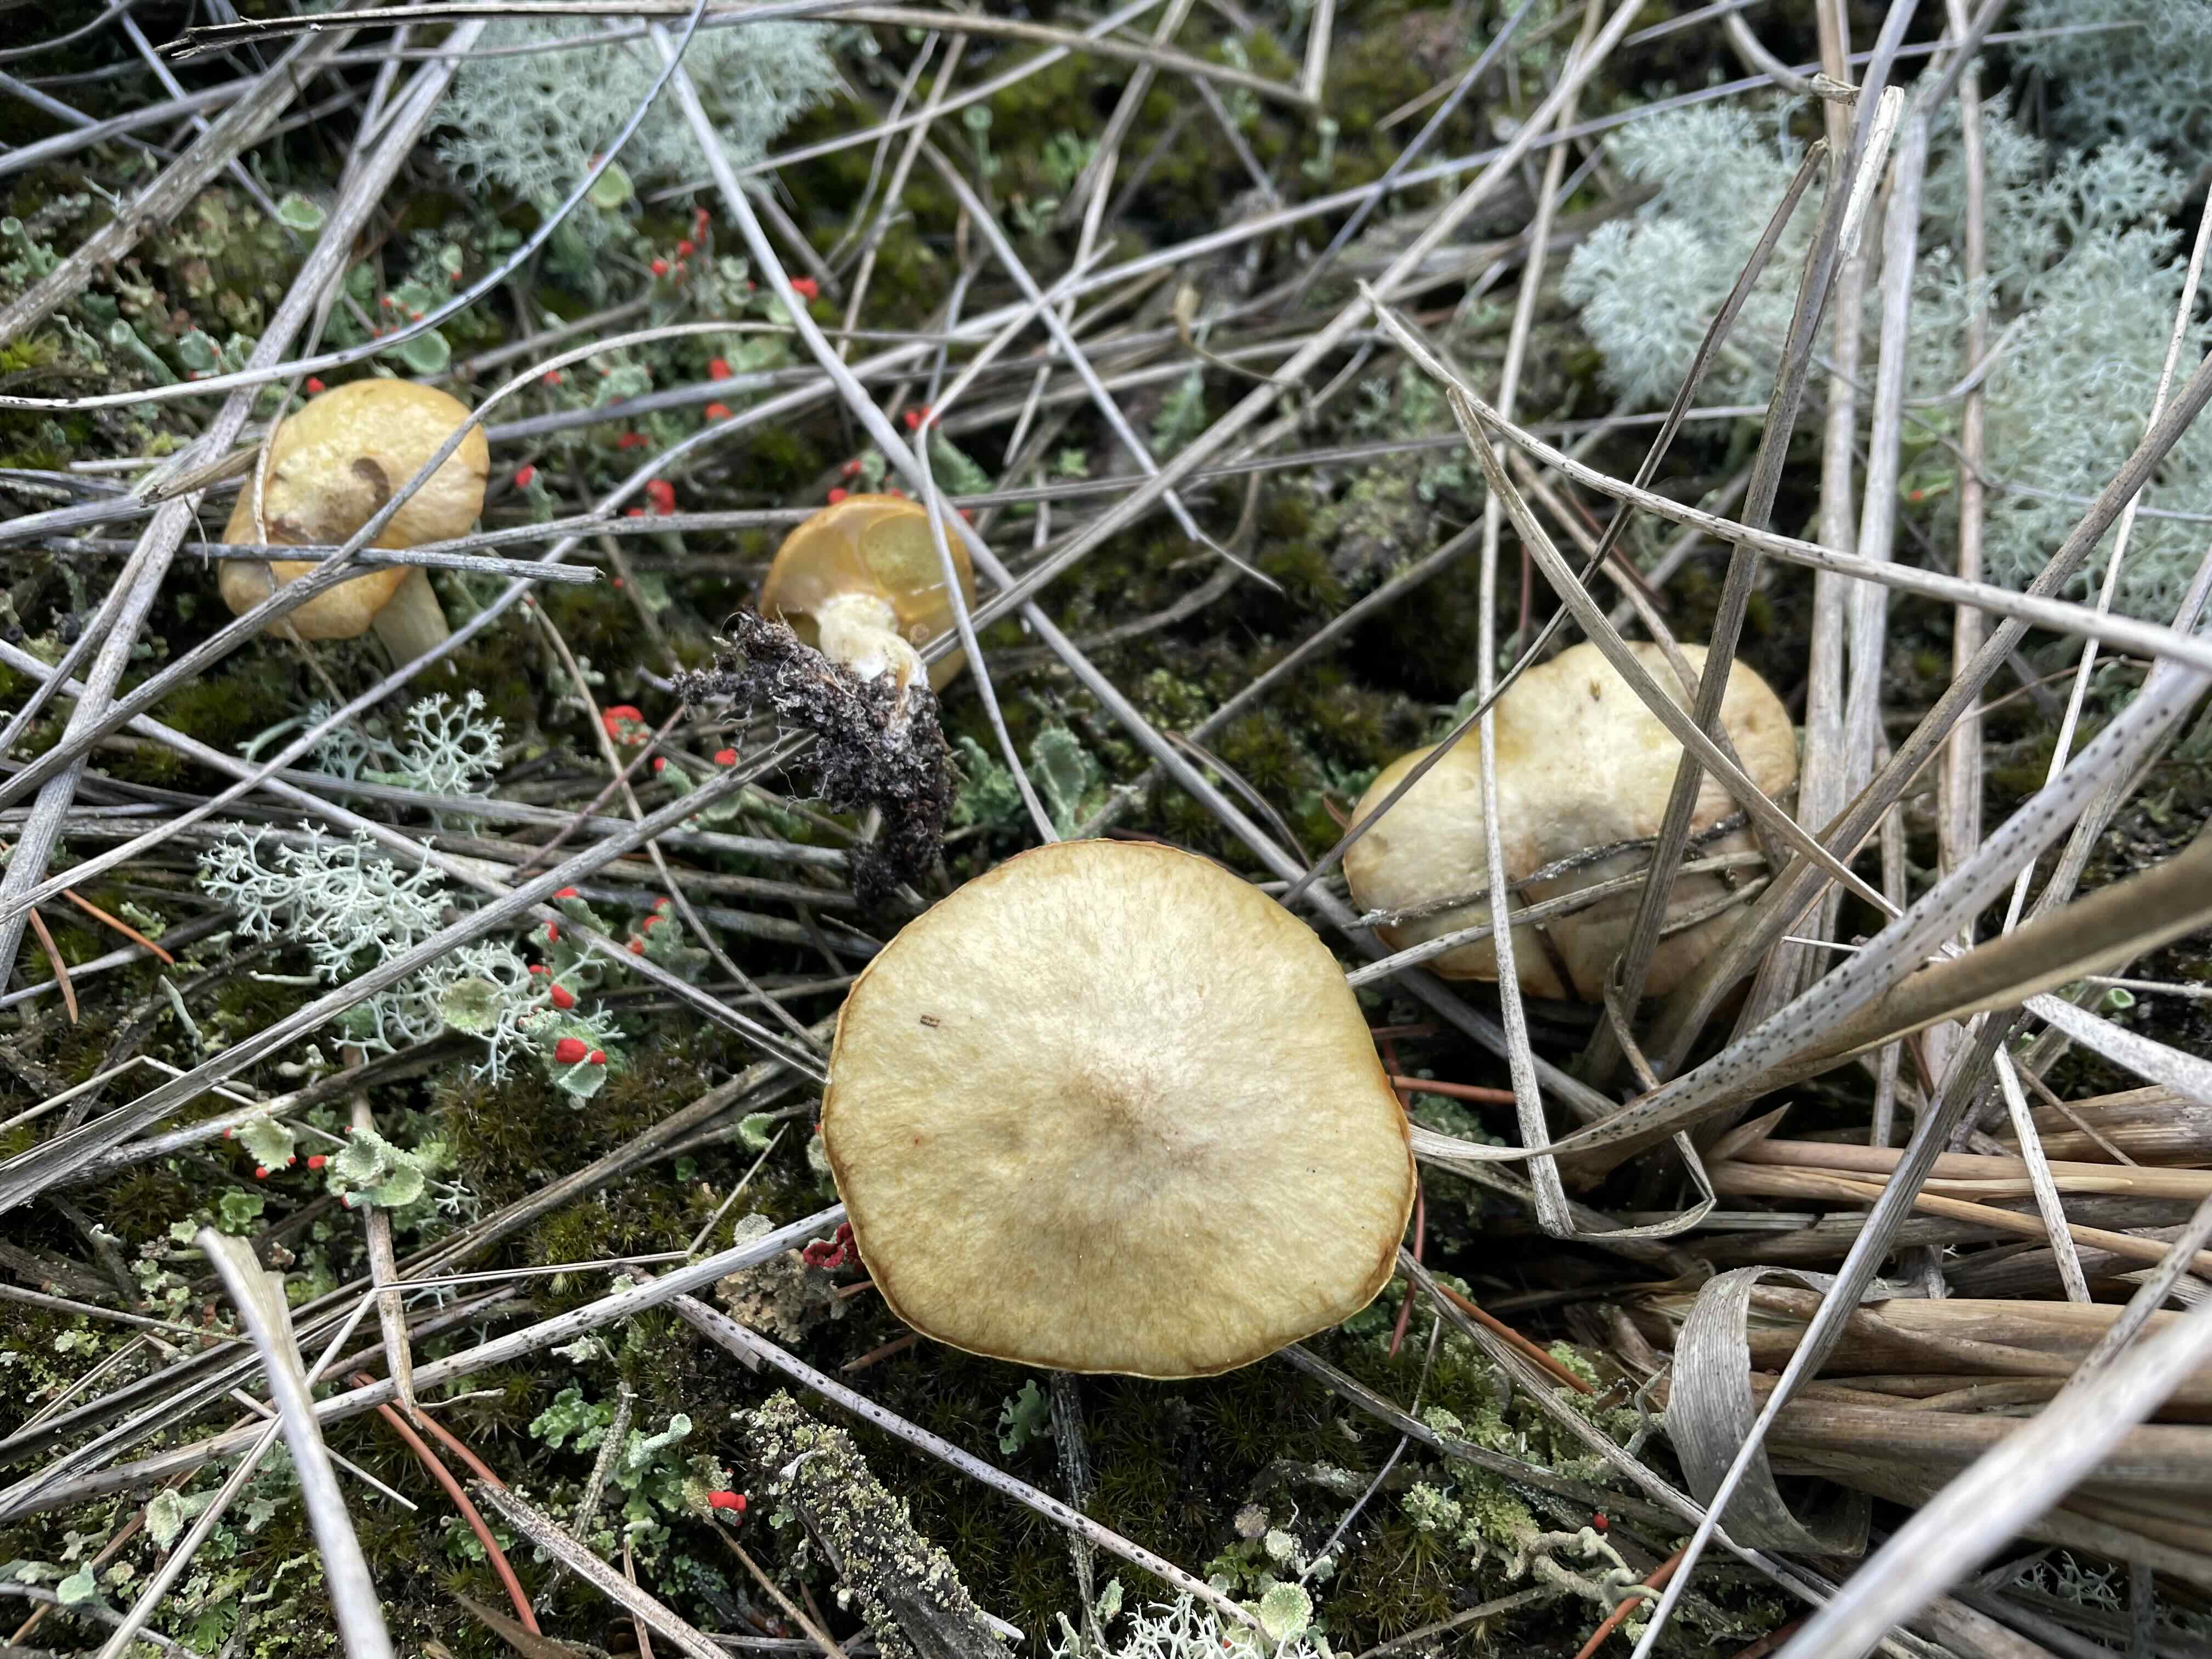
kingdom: Fungi
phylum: Basidiomycota
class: Agaricomycetes
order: Boletales
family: Suillaceae
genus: Suillus
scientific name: Suillus flavidus
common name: mose-slimrørhat
